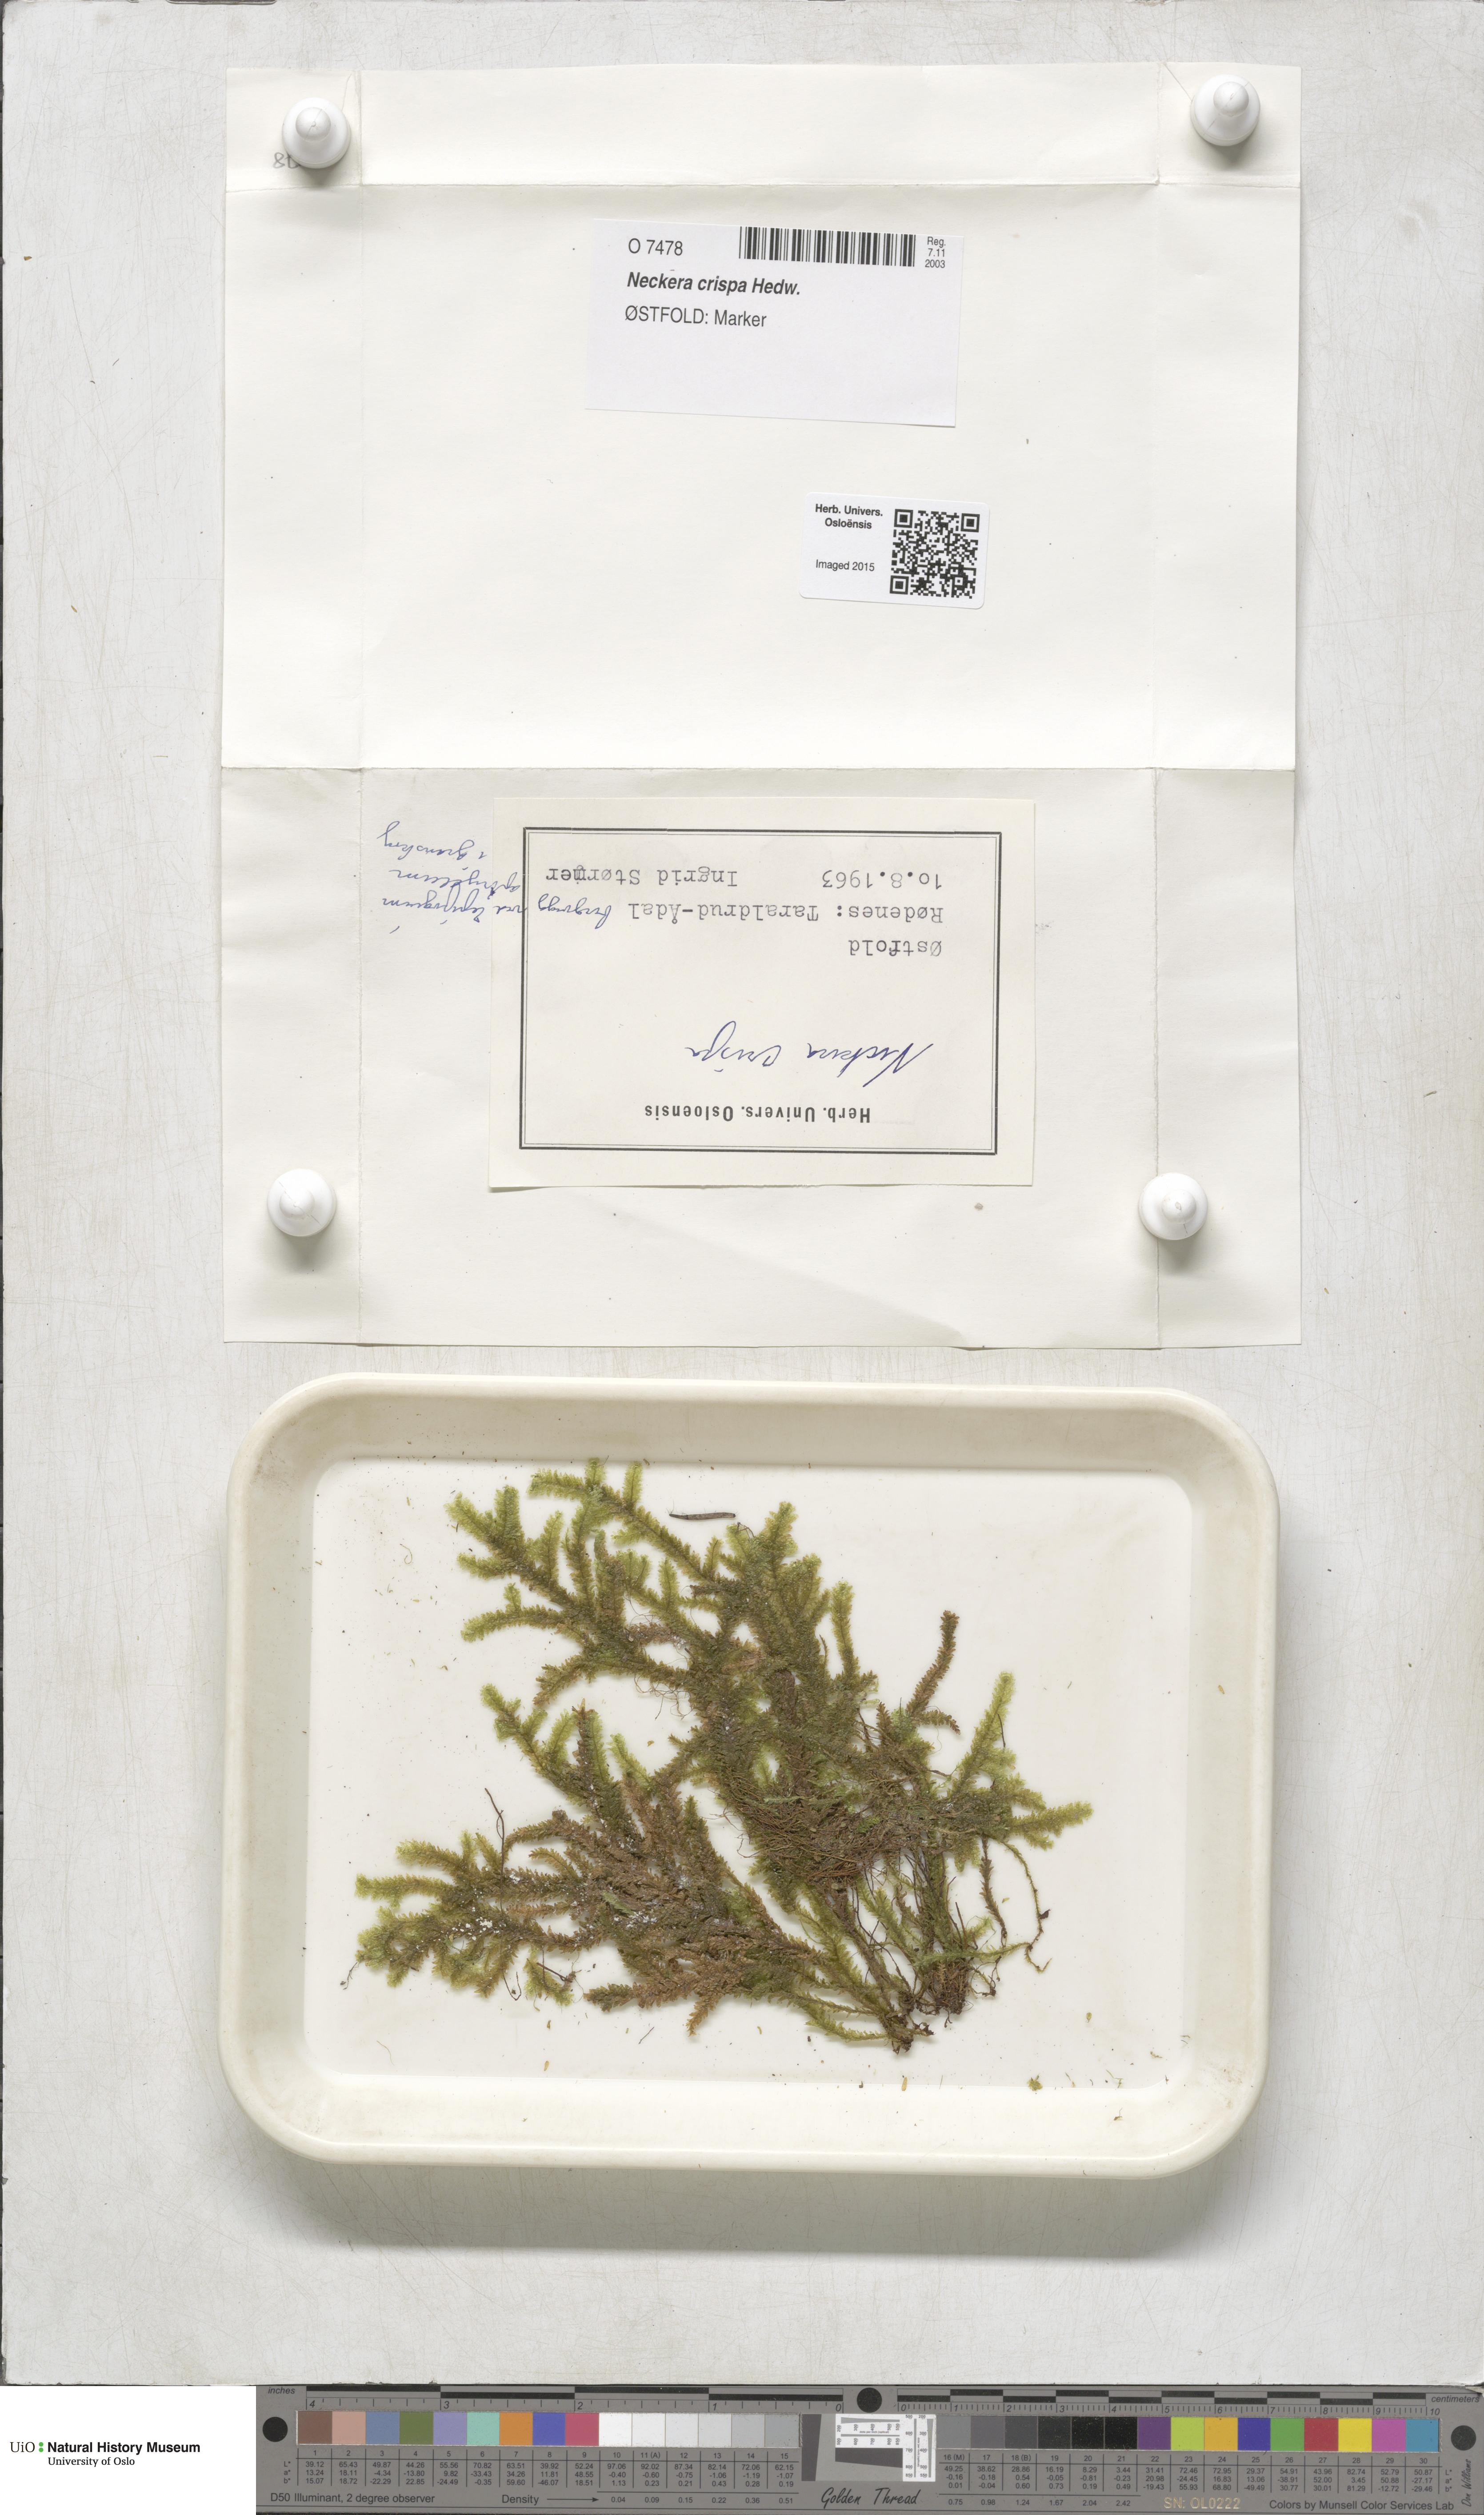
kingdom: Plantae
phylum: Bryophyta
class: Bryopsida
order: Hypnales
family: Neckeraceae
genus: Exsertotheca
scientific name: Exsertotheca crispa
